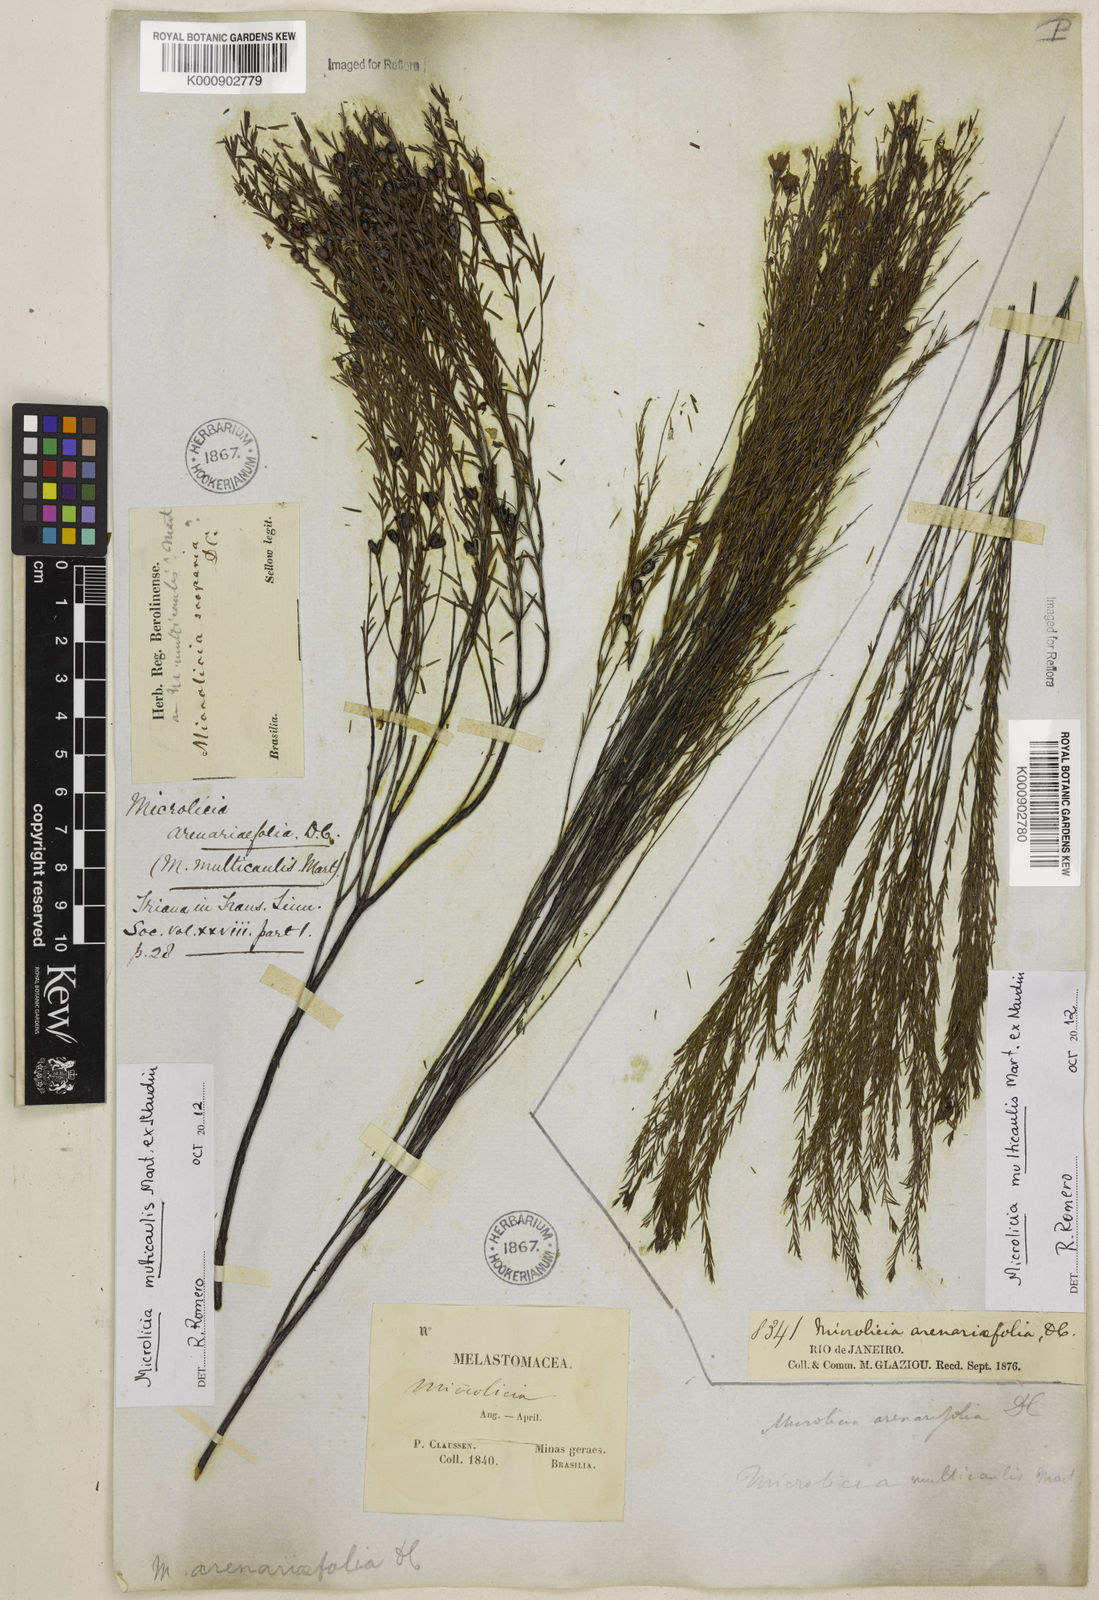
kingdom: Plantae
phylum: Tracheophyta
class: Magnoliopsida
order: Myrtales
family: Melastomataceae
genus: Microlicia
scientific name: Microlicia multicaulis
